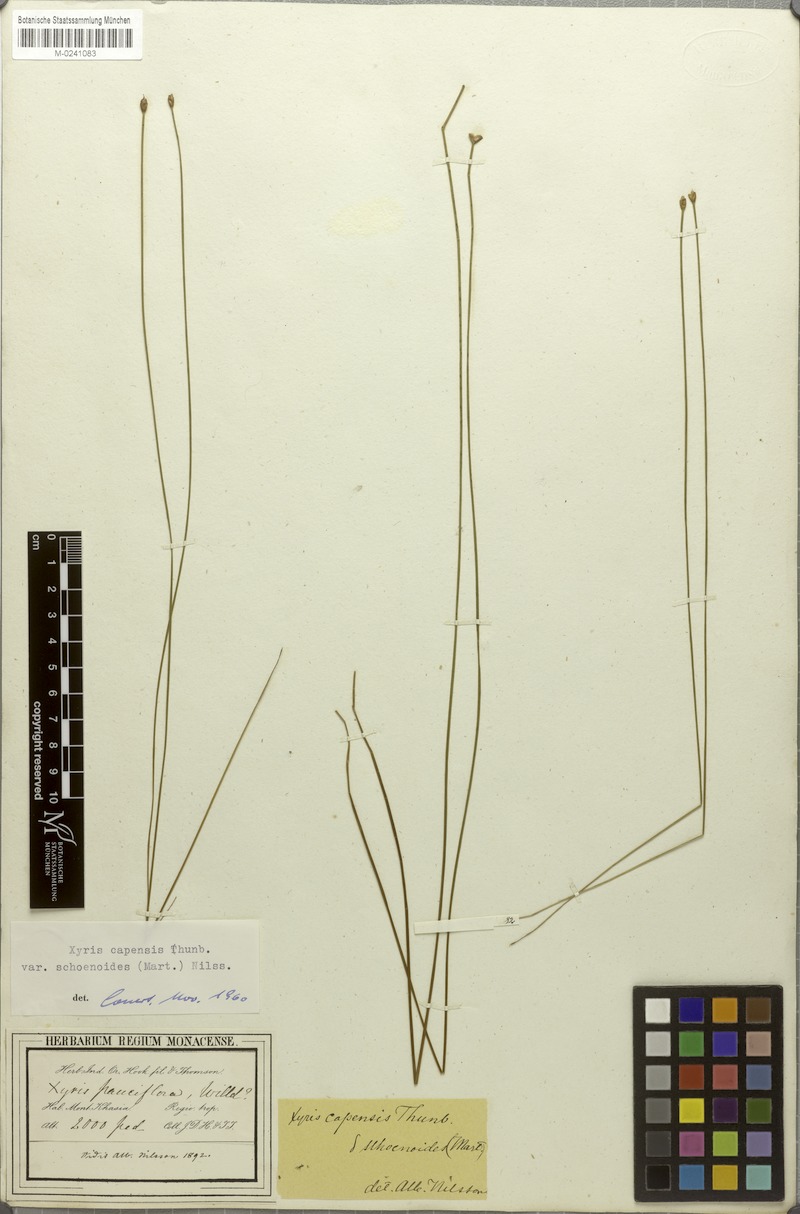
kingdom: Plantae
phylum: Tracheophyta
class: Liliopsida
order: Poales
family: Xyridaceae
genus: Xyris
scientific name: Xyris capensis
